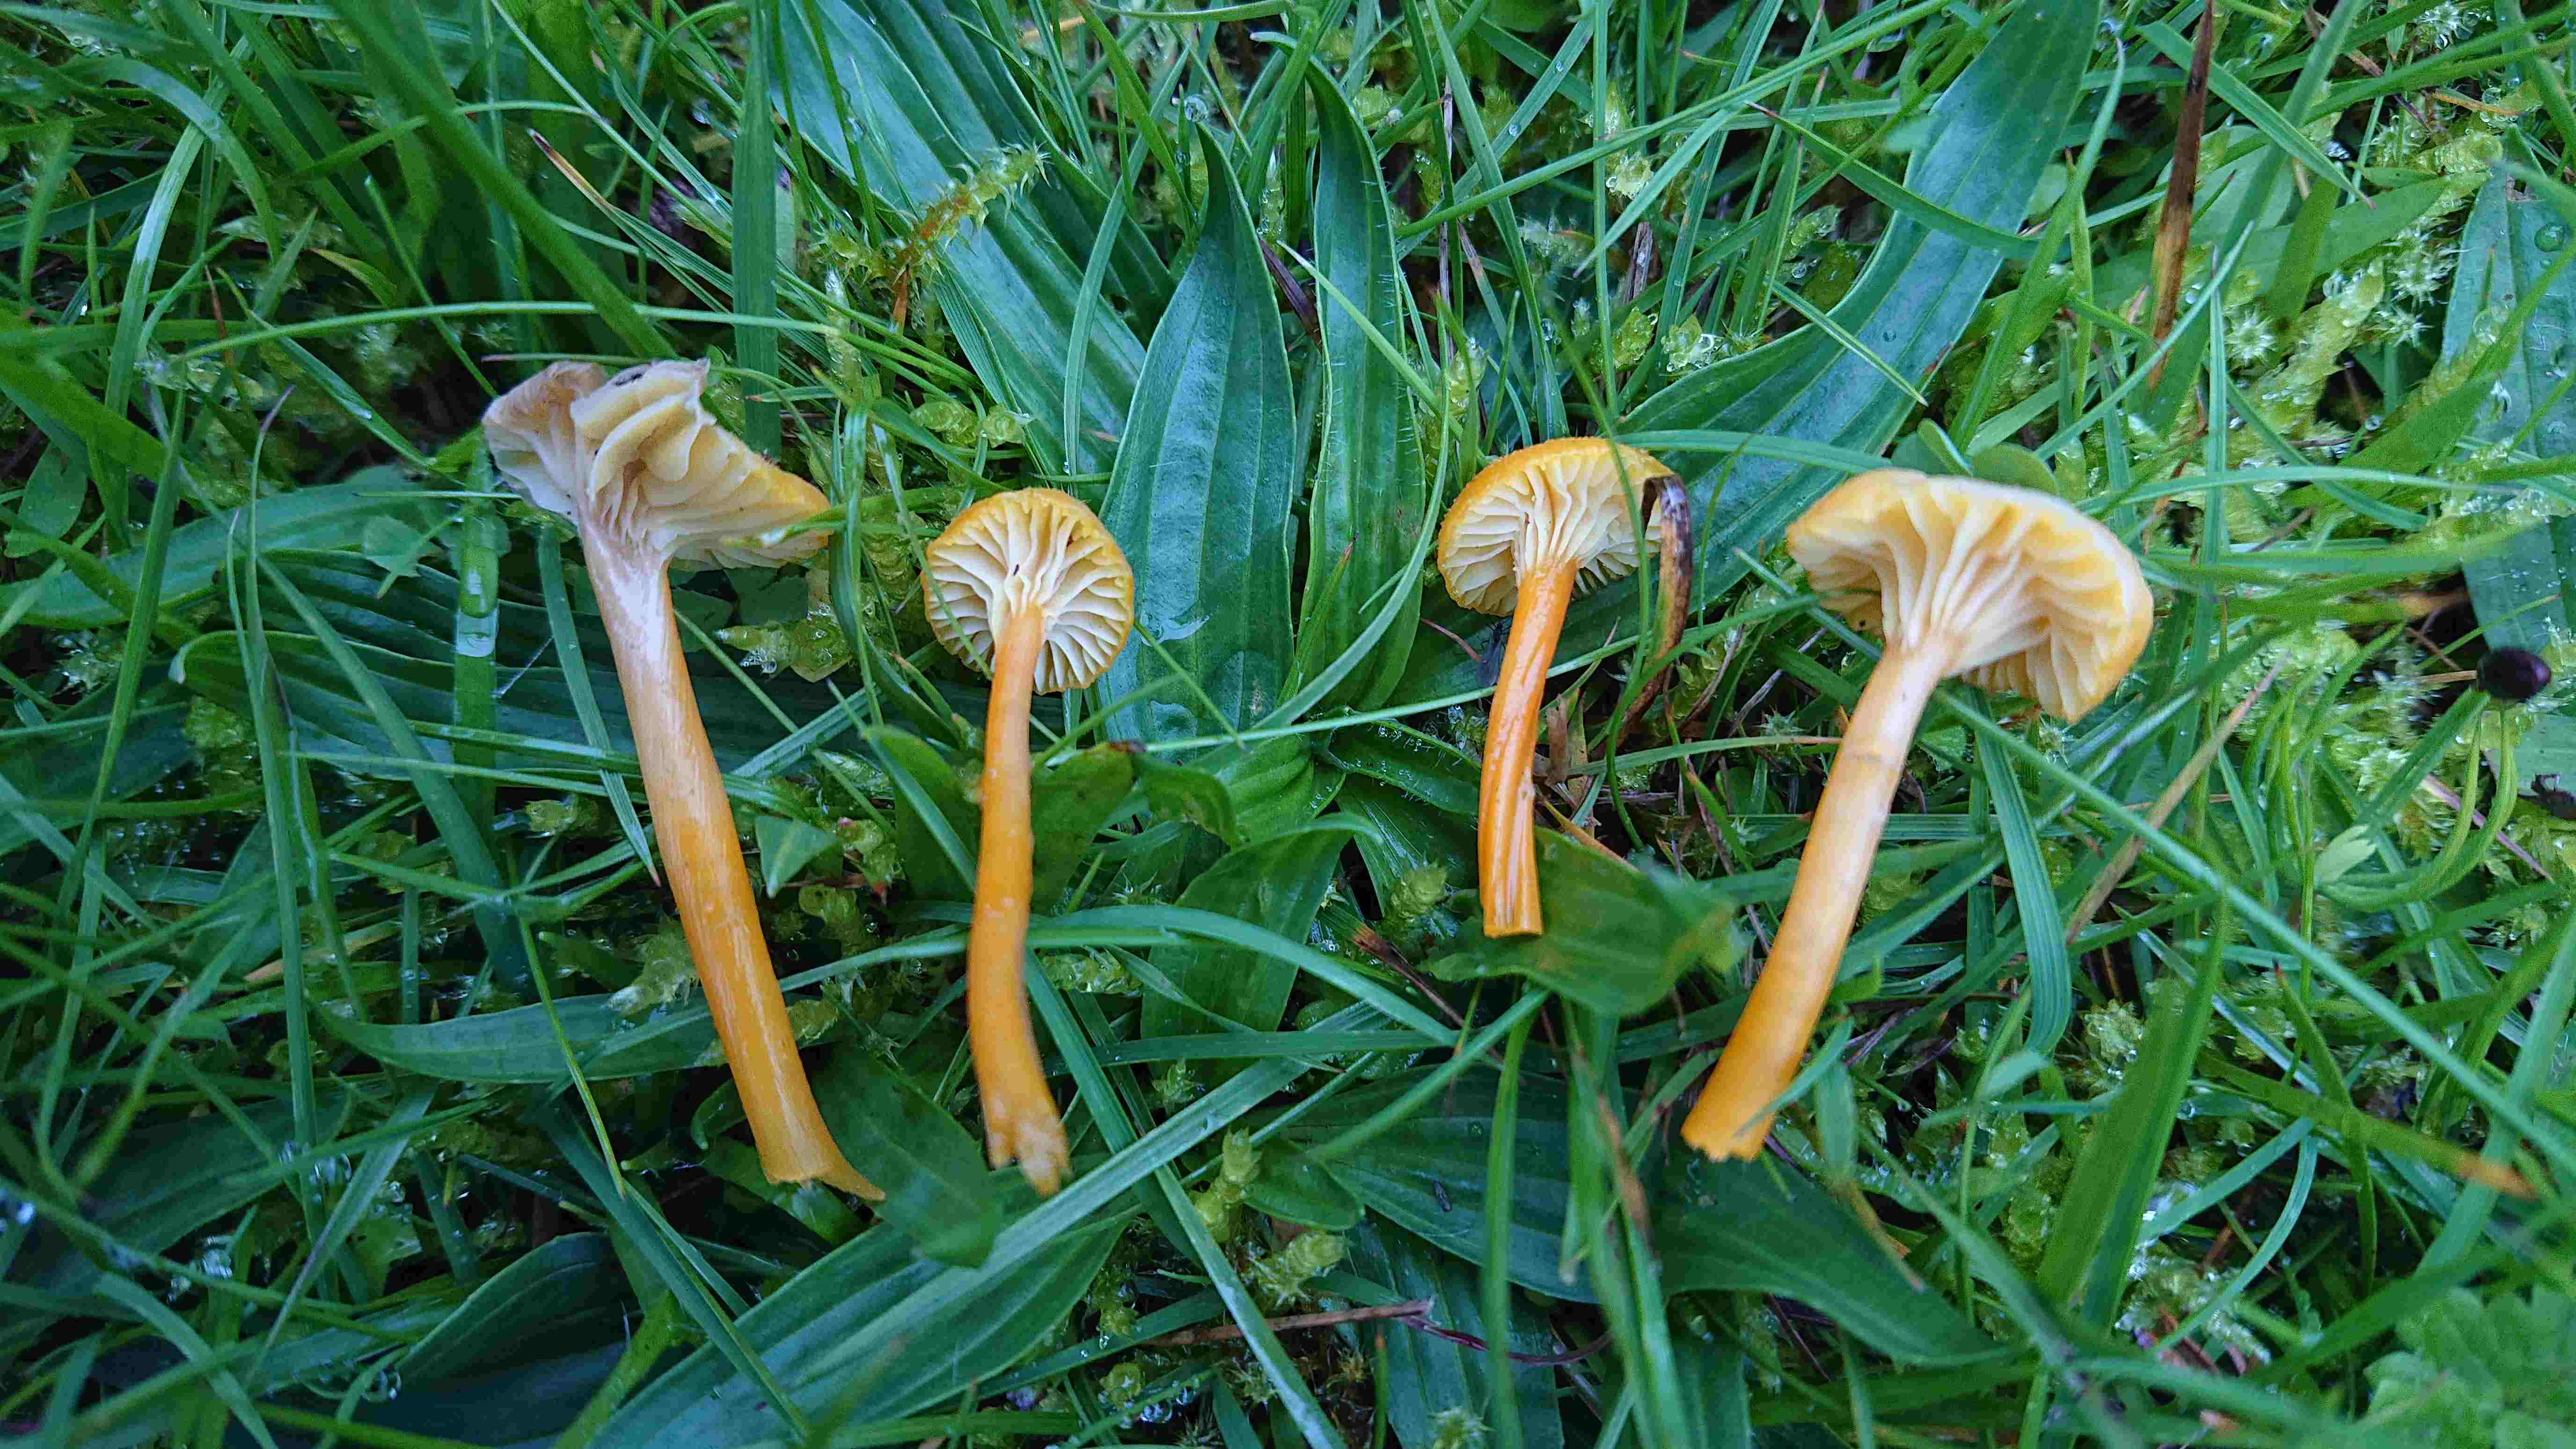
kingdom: Fungi
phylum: Basidiomycota
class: Agaricomycetes
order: Agaricales
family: Hygrophoraceae
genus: Hygrocybe
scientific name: Hygrocybe cantharellus
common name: kantarel-vokshat
